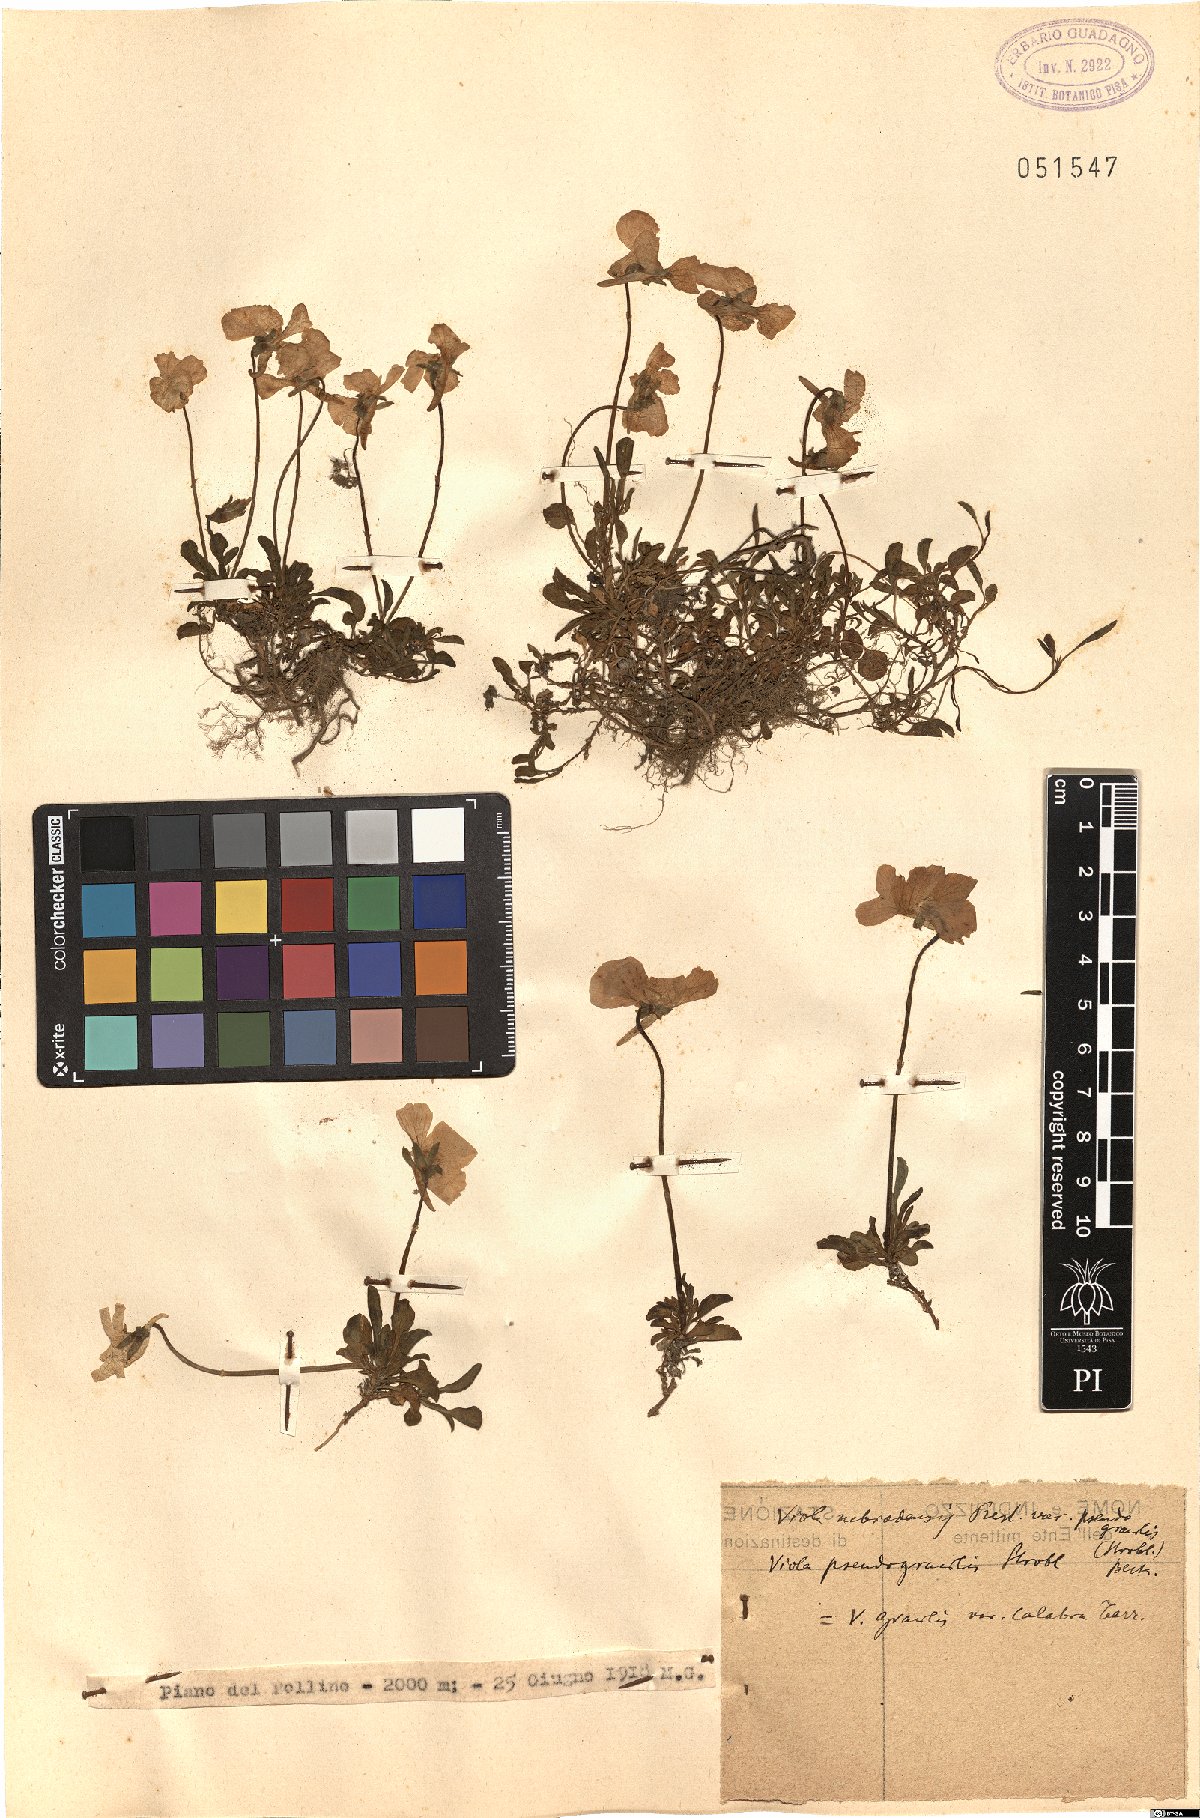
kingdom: Plantae
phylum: Tracheophyta
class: Magnoliopsida
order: Malpighiales
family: Violaceae
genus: Viola
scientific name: Viola aethnensis
